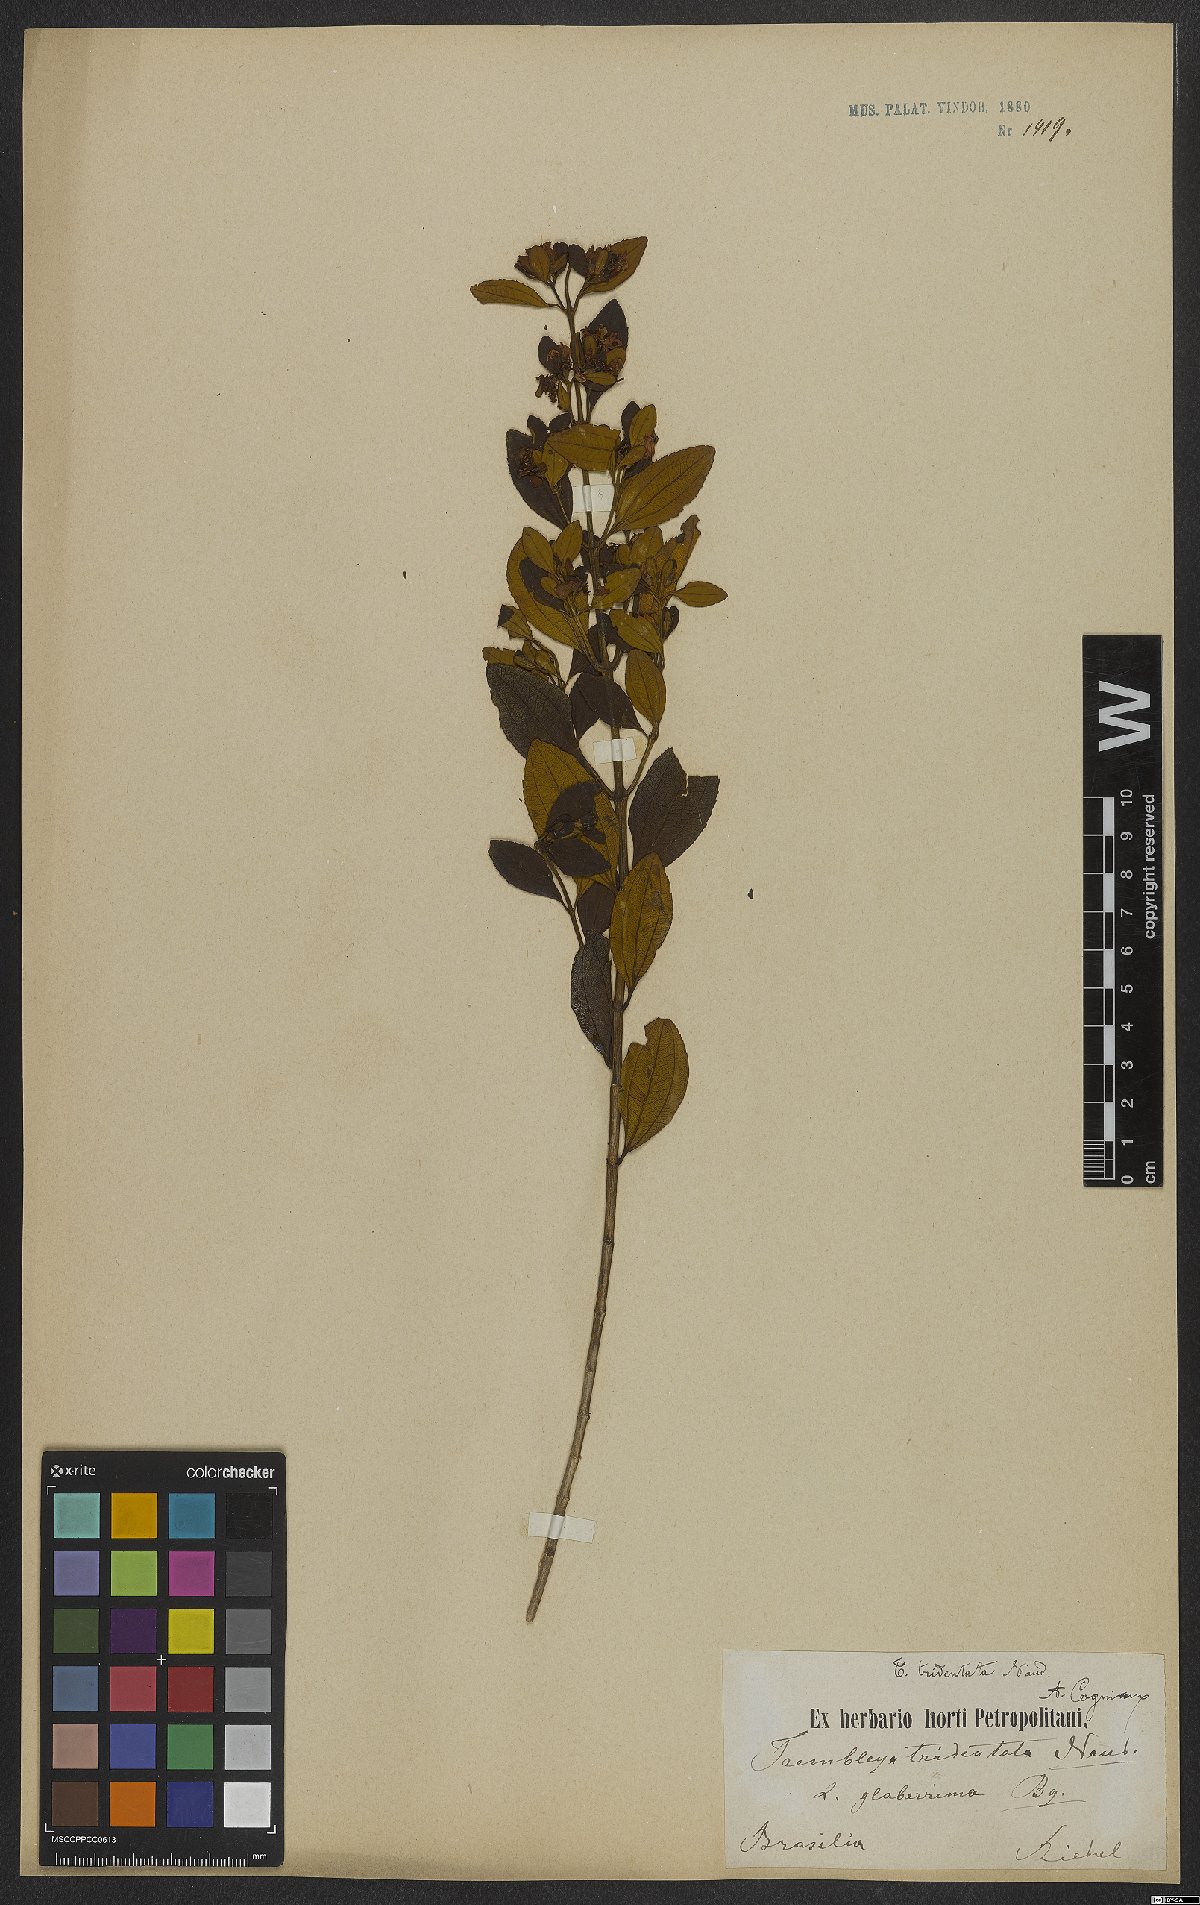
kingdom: Plantae
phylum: Tracheophyta
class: Magnoliopsida
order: Myrtales
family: Melastomataceae
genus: Microlicia
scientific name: Microlicia tridentata
